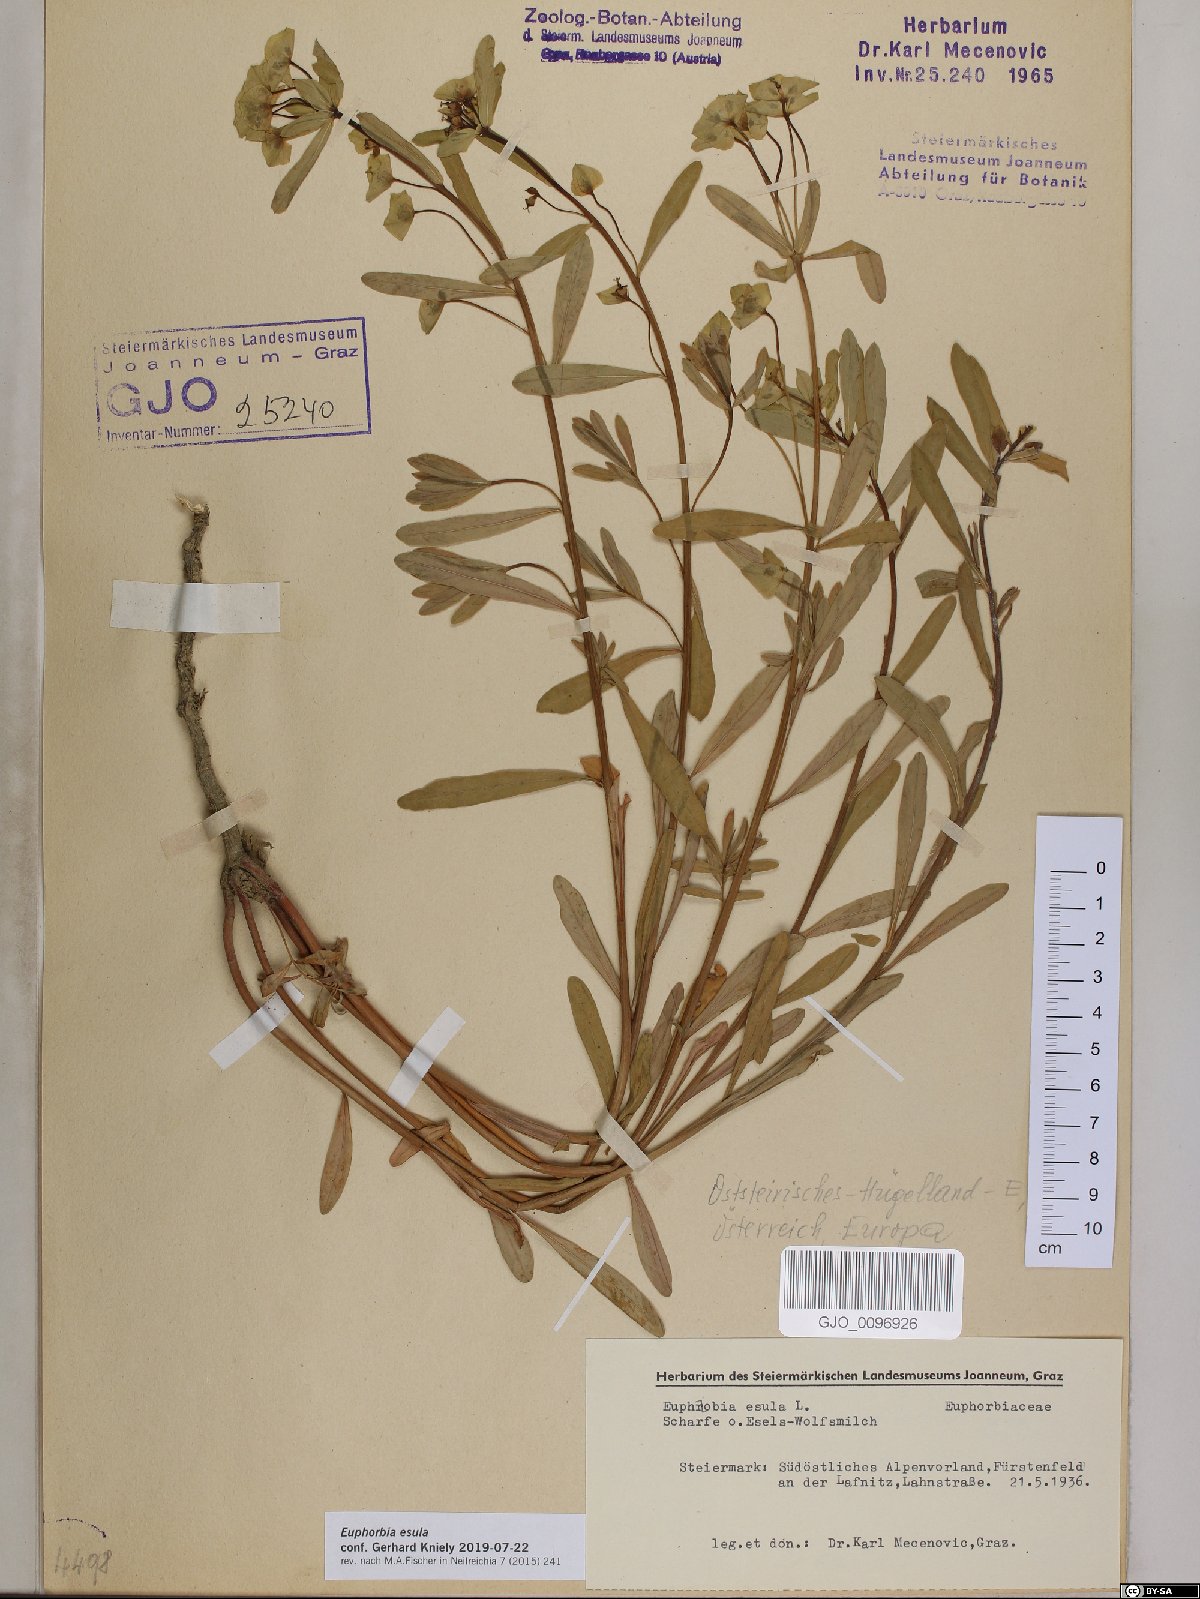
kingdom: Plantae
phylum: Tracheophyta
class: Magnoliopsida
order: Malpighiales
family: Euphorbiaceae
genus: Euphorbia
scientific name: Euphorbia esula
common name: Leafy spurge
